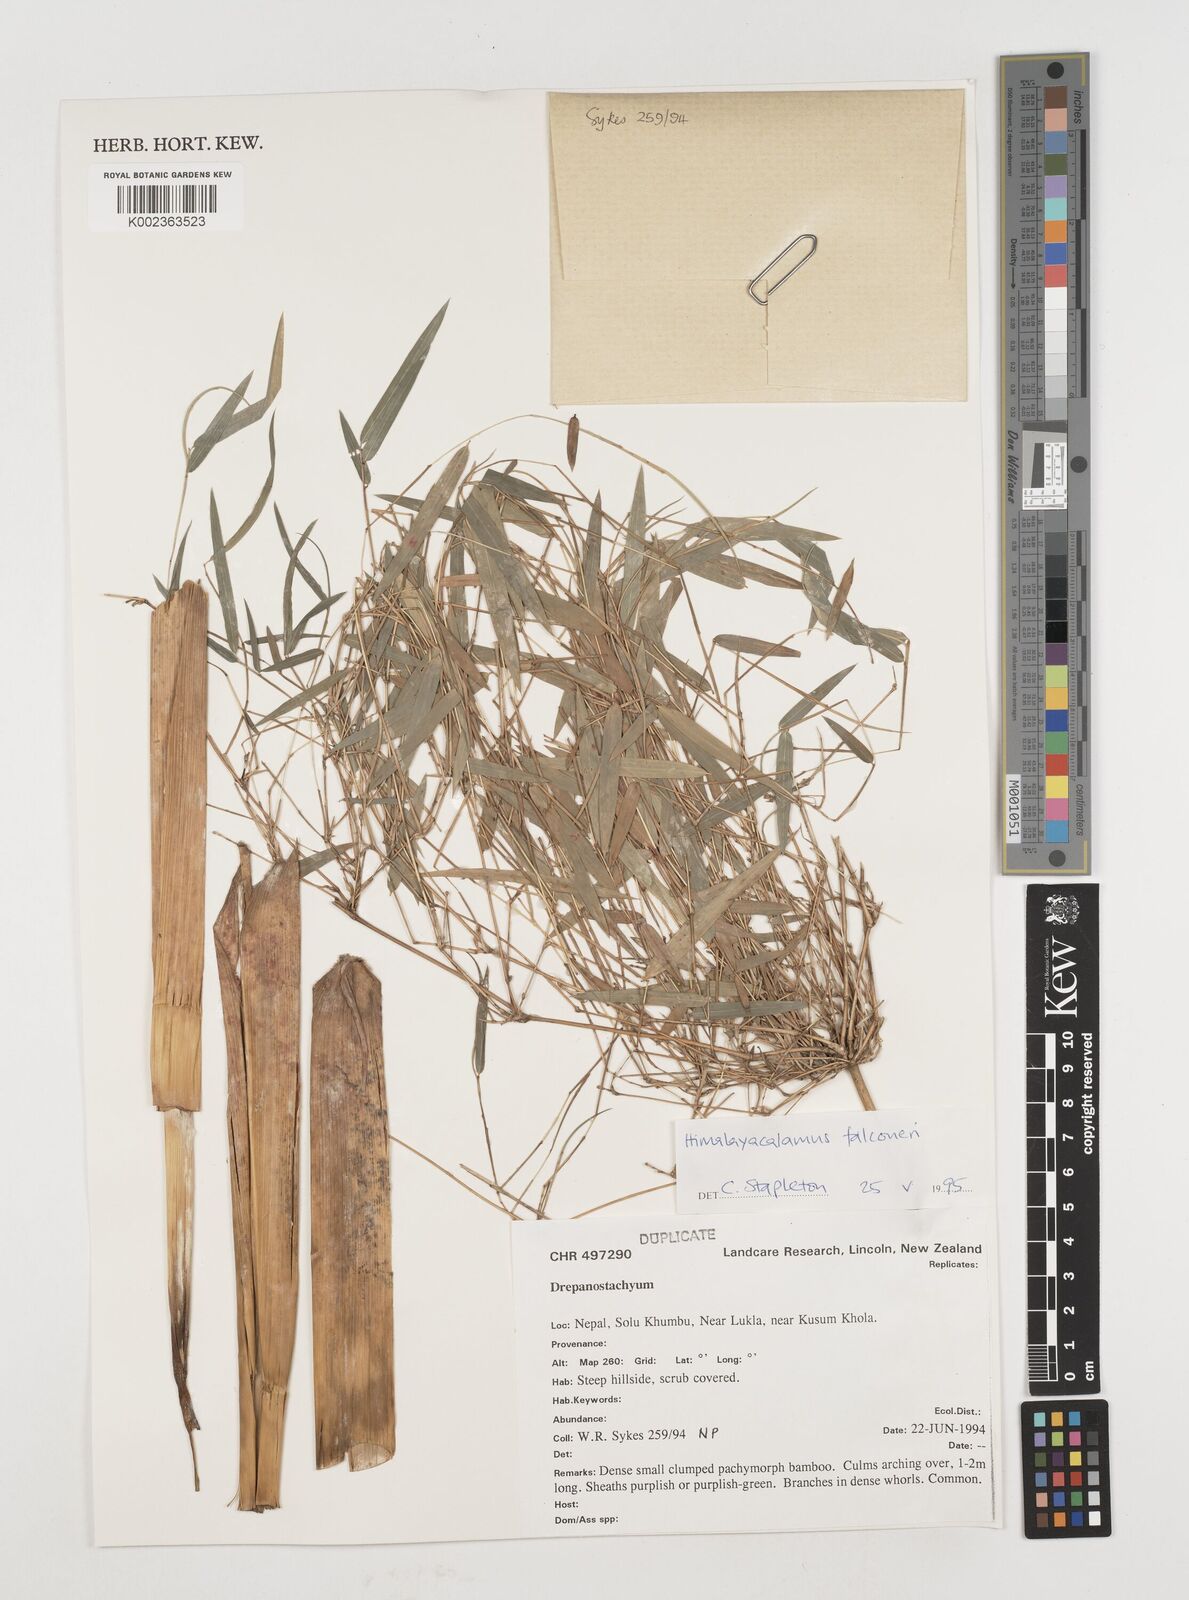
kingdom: Plantae
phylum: Tracheophyta
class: Liliopsida
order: Poales
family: Poaceae
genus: Himalayacalamus
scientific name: Himalayacalamus
